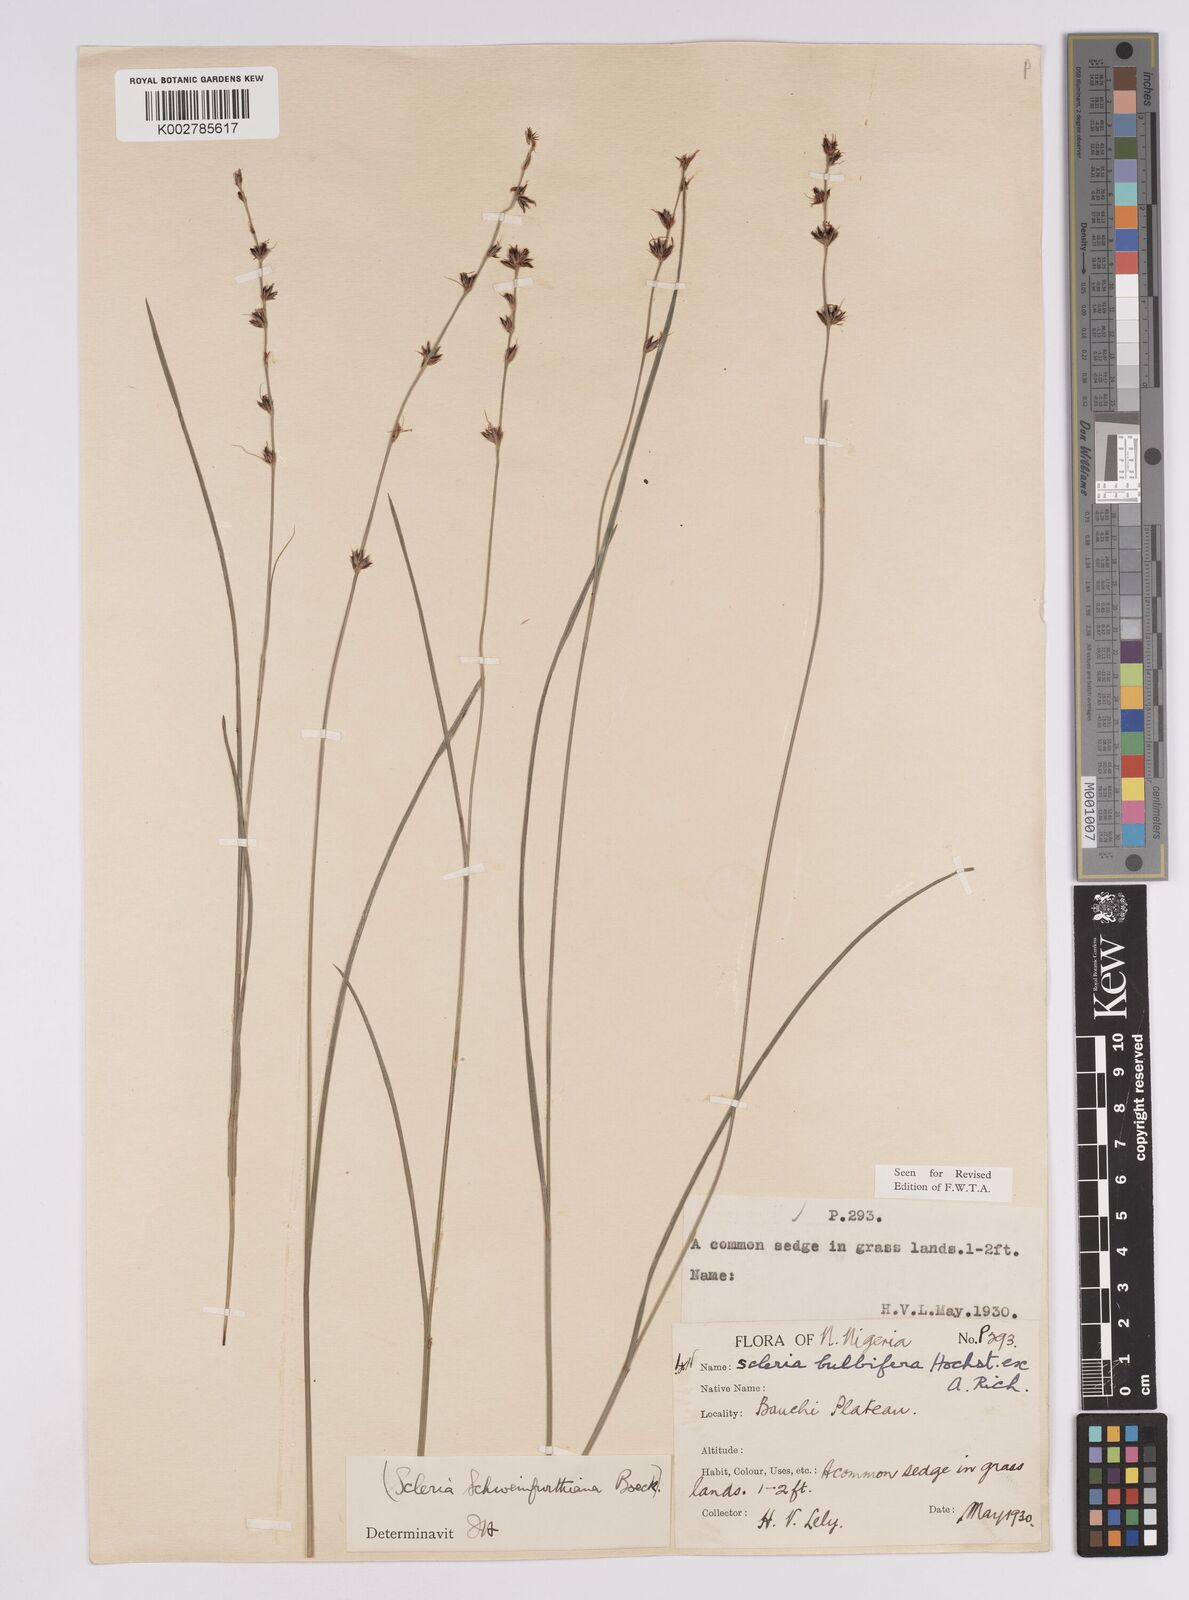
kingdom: Plantae
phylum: Tracheophyta
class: Liliopsida
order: Poales
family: Cyperaceae
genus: Scleria
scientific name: Scleria bulbifera
